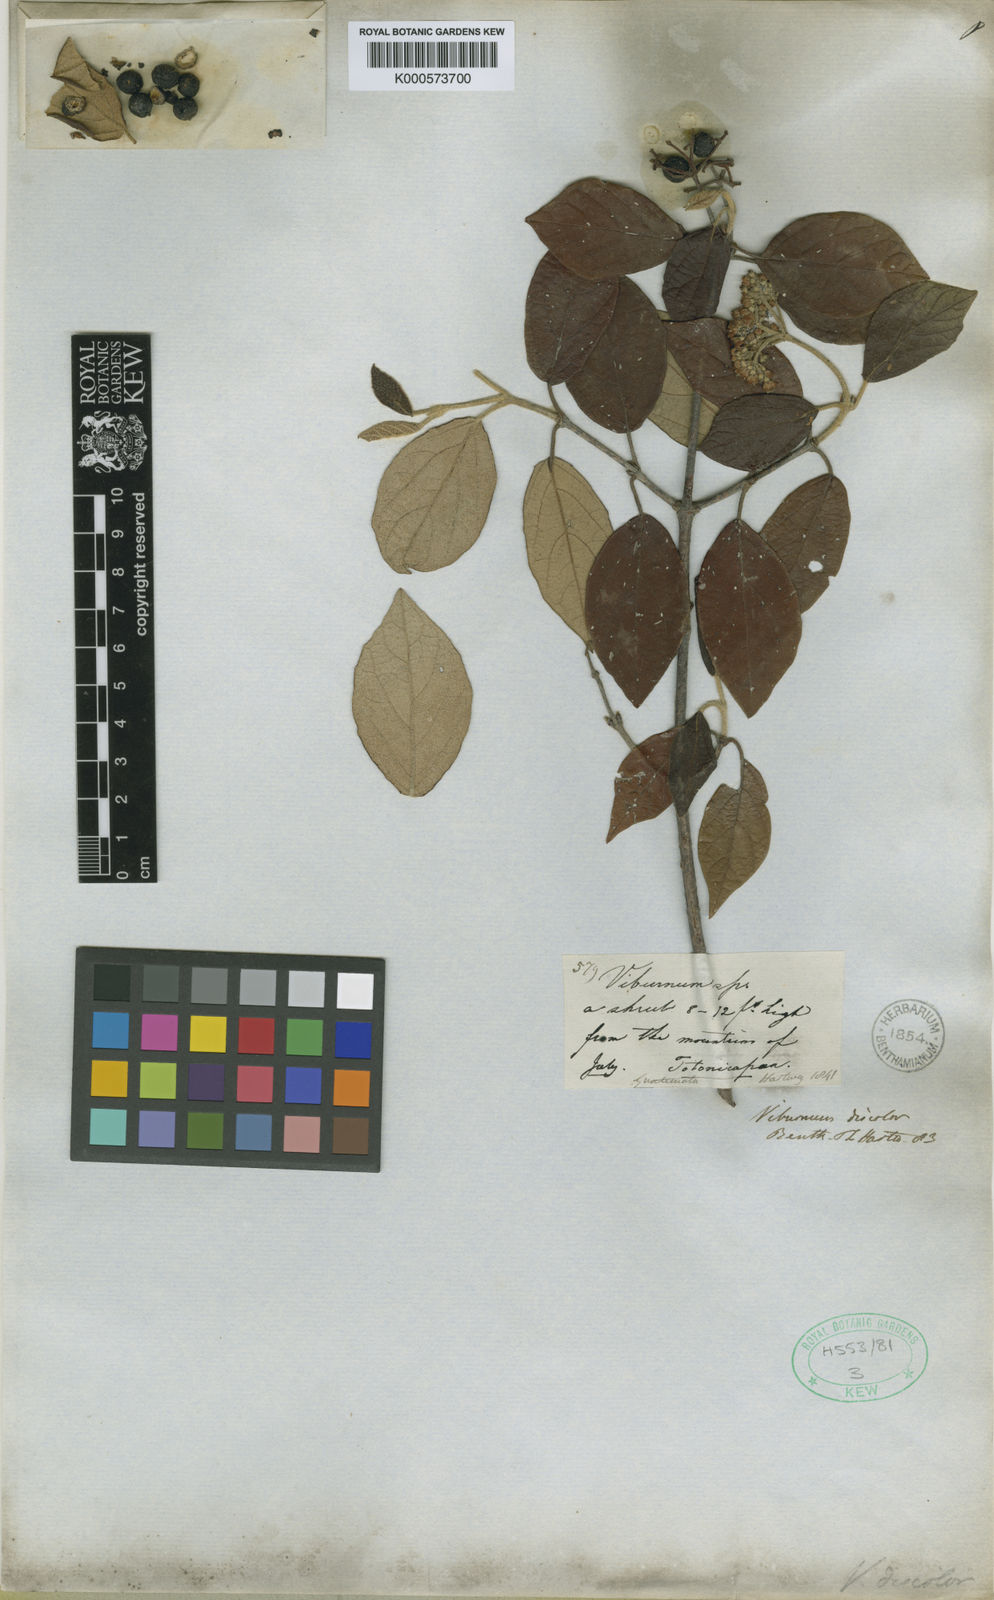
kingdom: Plantae
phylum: Tracheophyta
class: Magnoliopsida
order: Dipsacales
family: Viburnaceae
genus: Viburnum
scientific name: Viburnum discolor
